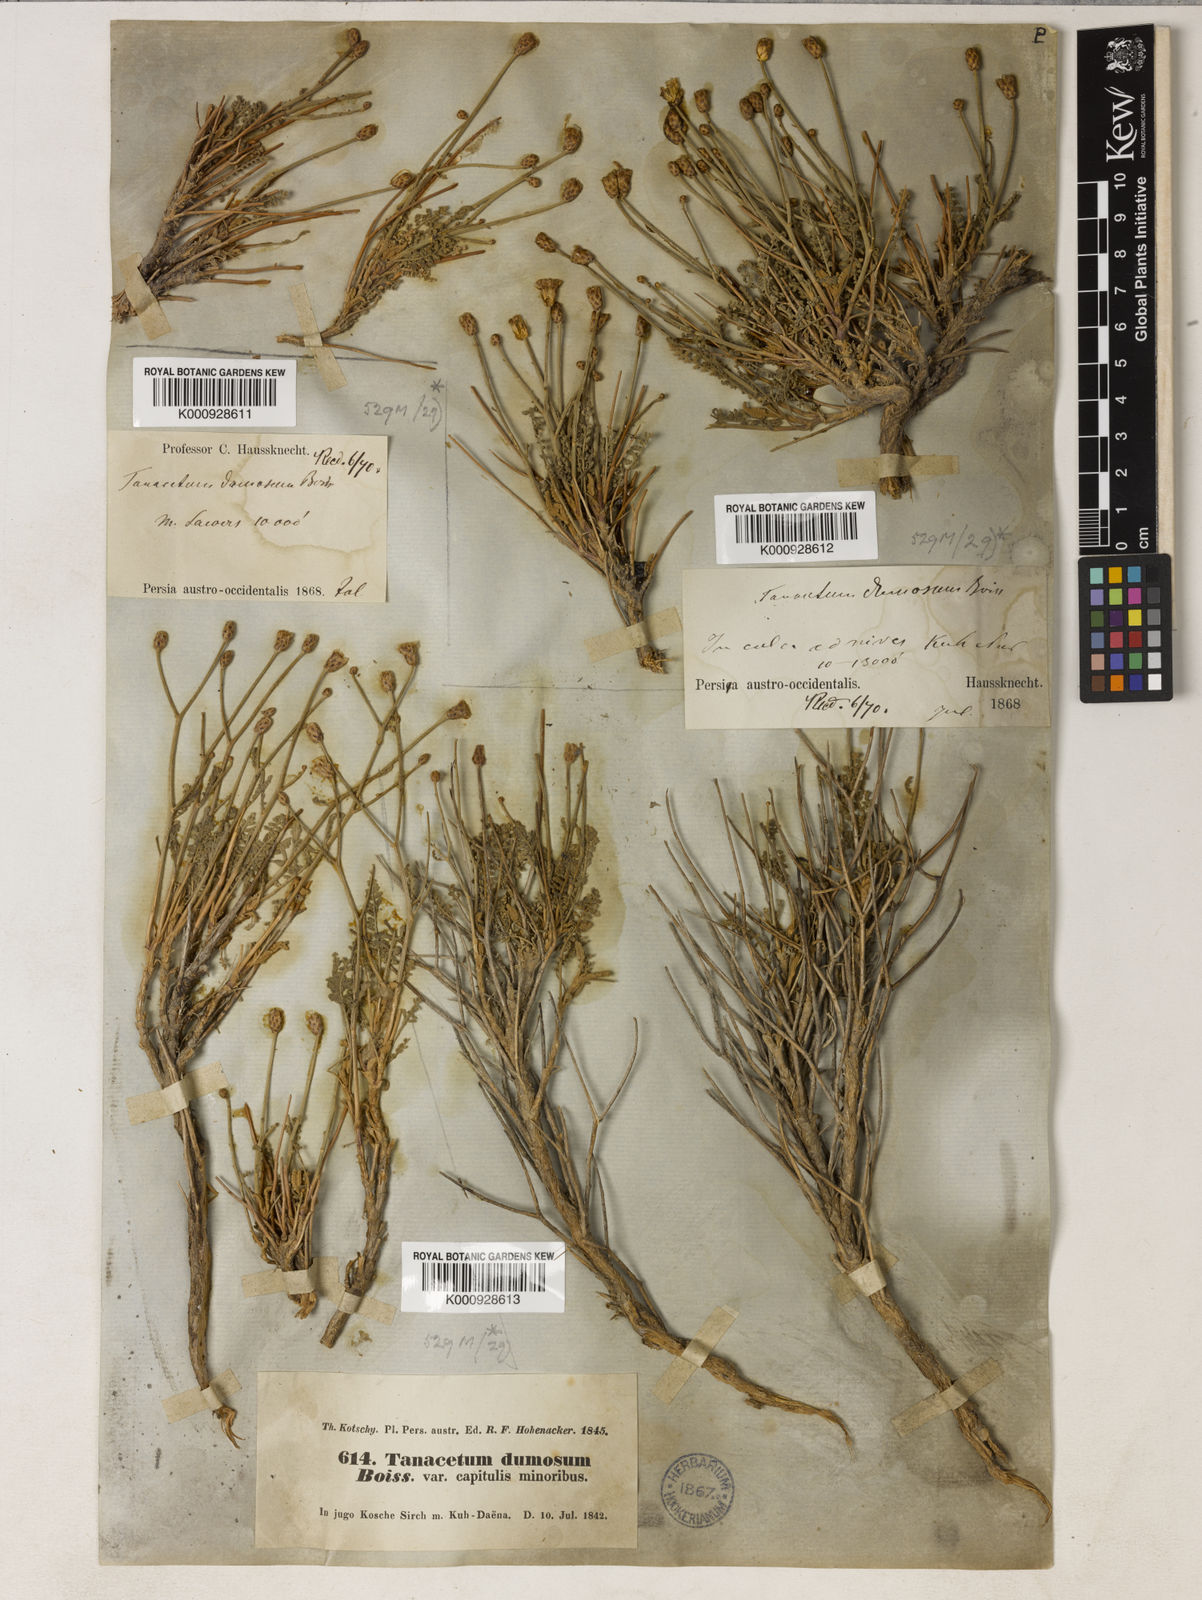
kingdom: Plantae
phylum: Tracheophyta
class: Magnoliopsida
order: Asterales
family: Asteraceae
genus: Tanacetum
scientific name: Tanacetum dumosum
